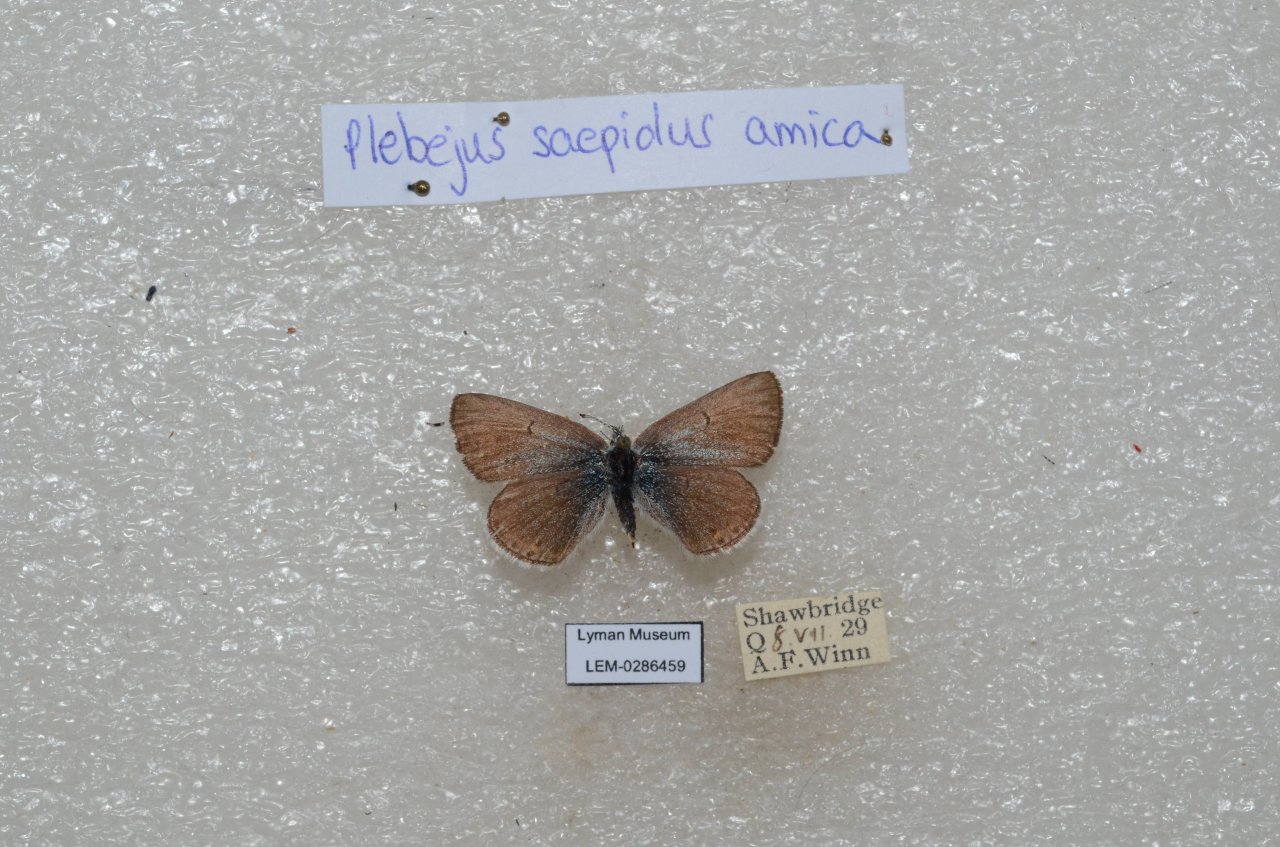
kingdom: Animalia
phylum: Arthropoda
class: Insecta
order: Lepidoptera
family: Lycaenidae
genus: Plebejus
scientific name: Plebejus saepiolus
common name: Greenish Blue
